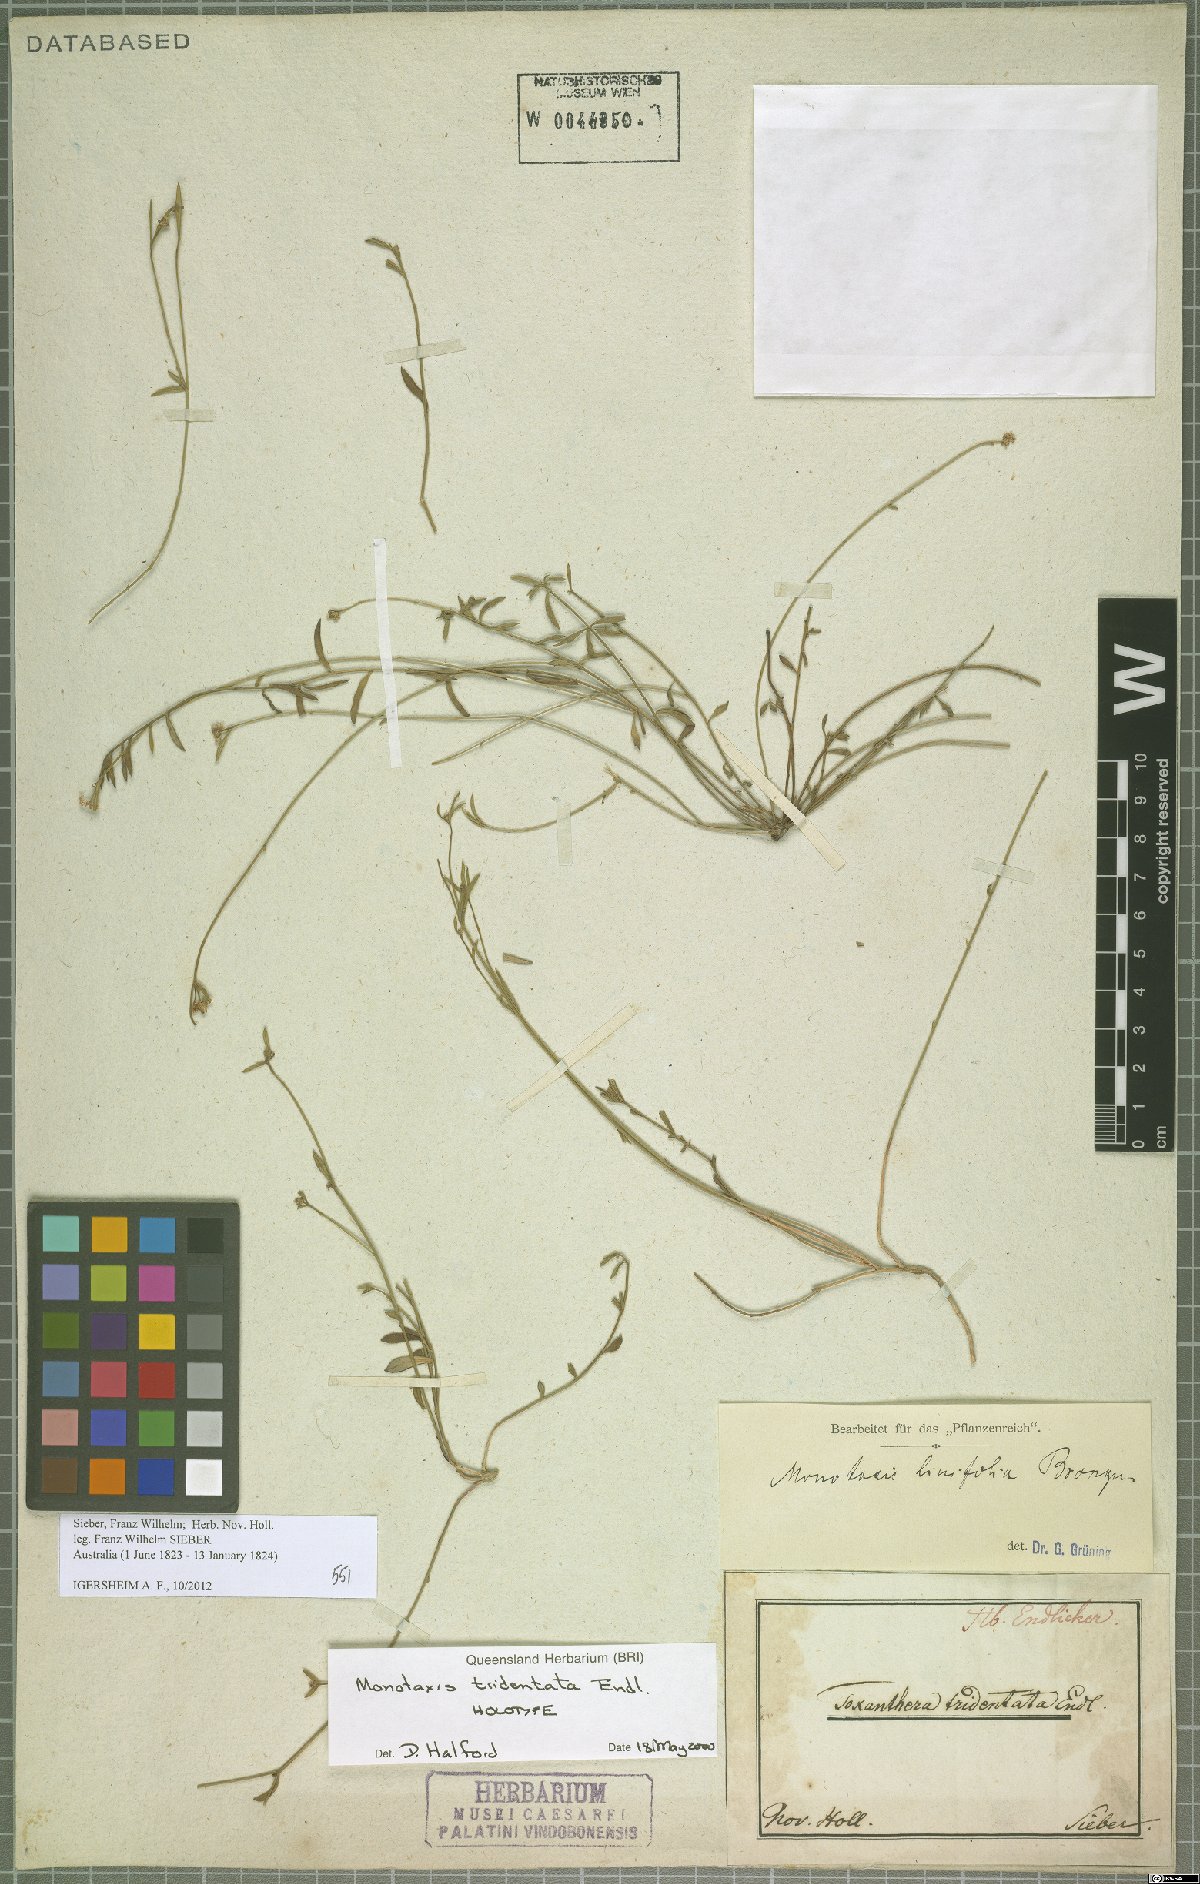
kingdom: Plantae
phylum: Tracheophyta
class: Magnoliopsida
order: Malpighiales
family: Euphorbiaceae
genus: Monotaxis
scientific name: Monotaxis linifolia
